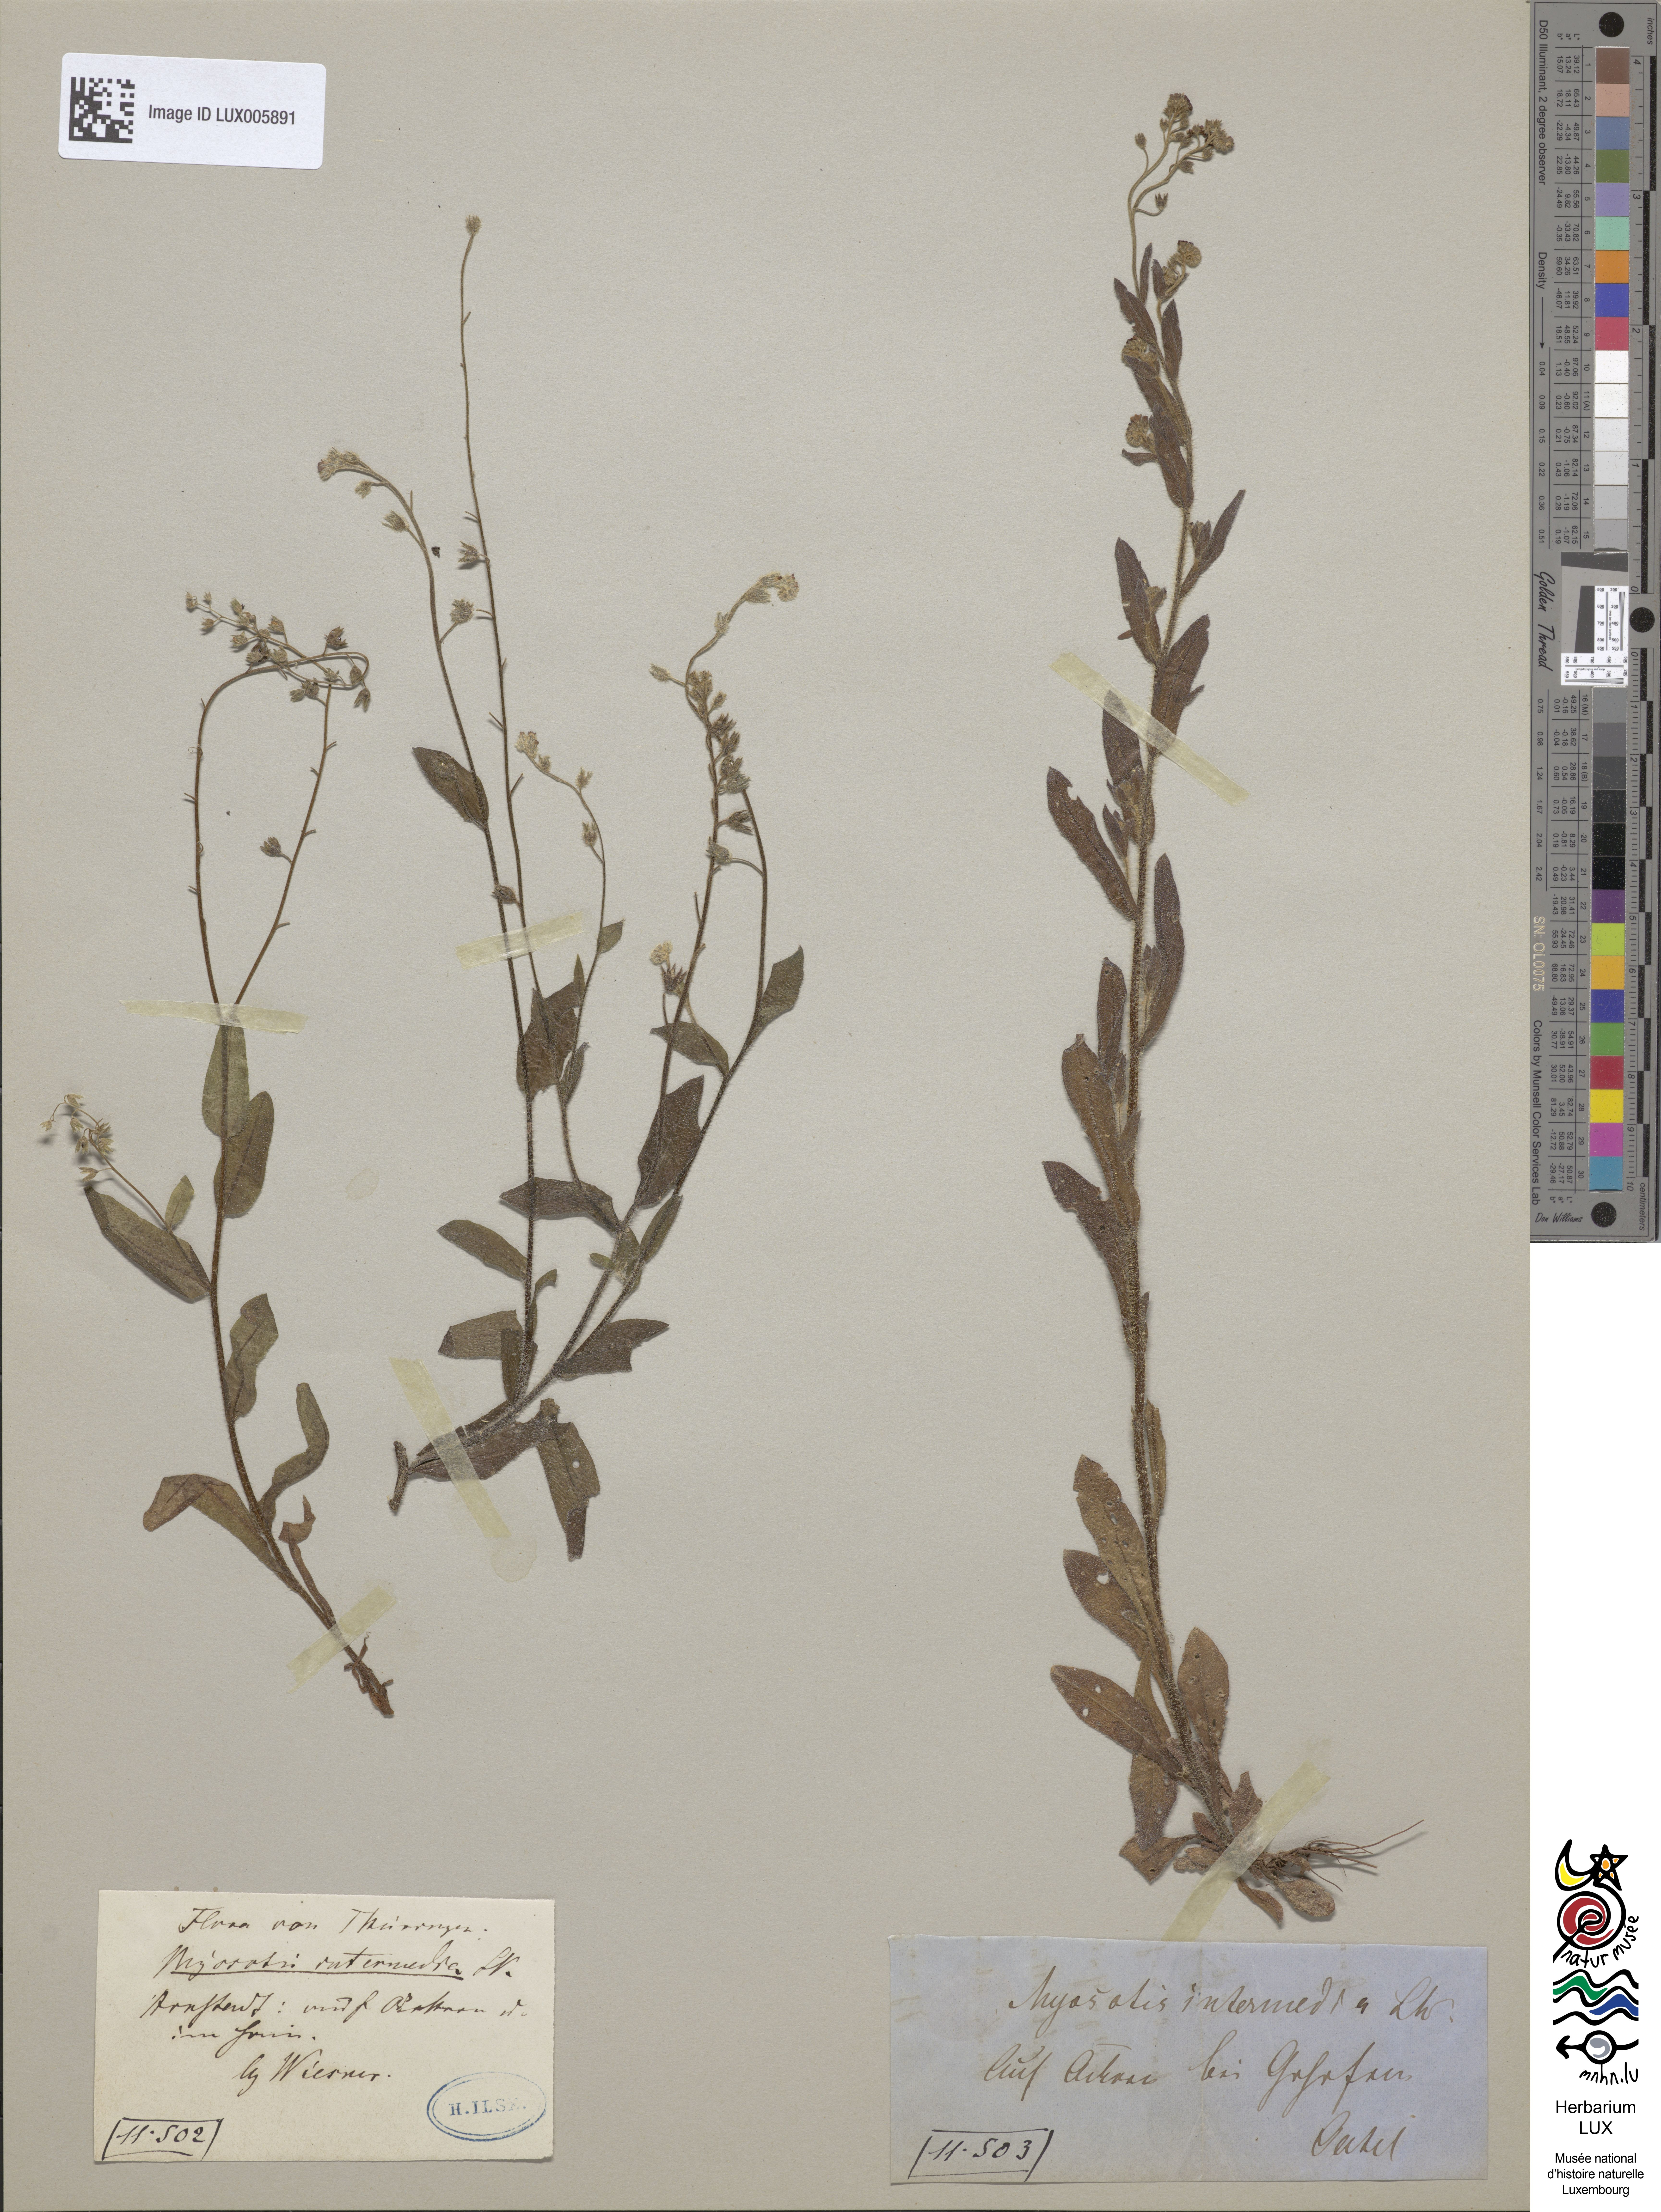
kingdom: Plantae
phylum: Tracheophyta
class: Magnoliopsida
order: Boraginales
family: Boraginaceae
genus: Myosotis
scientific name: Myosotis arvensis
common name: Field forget-me-not
